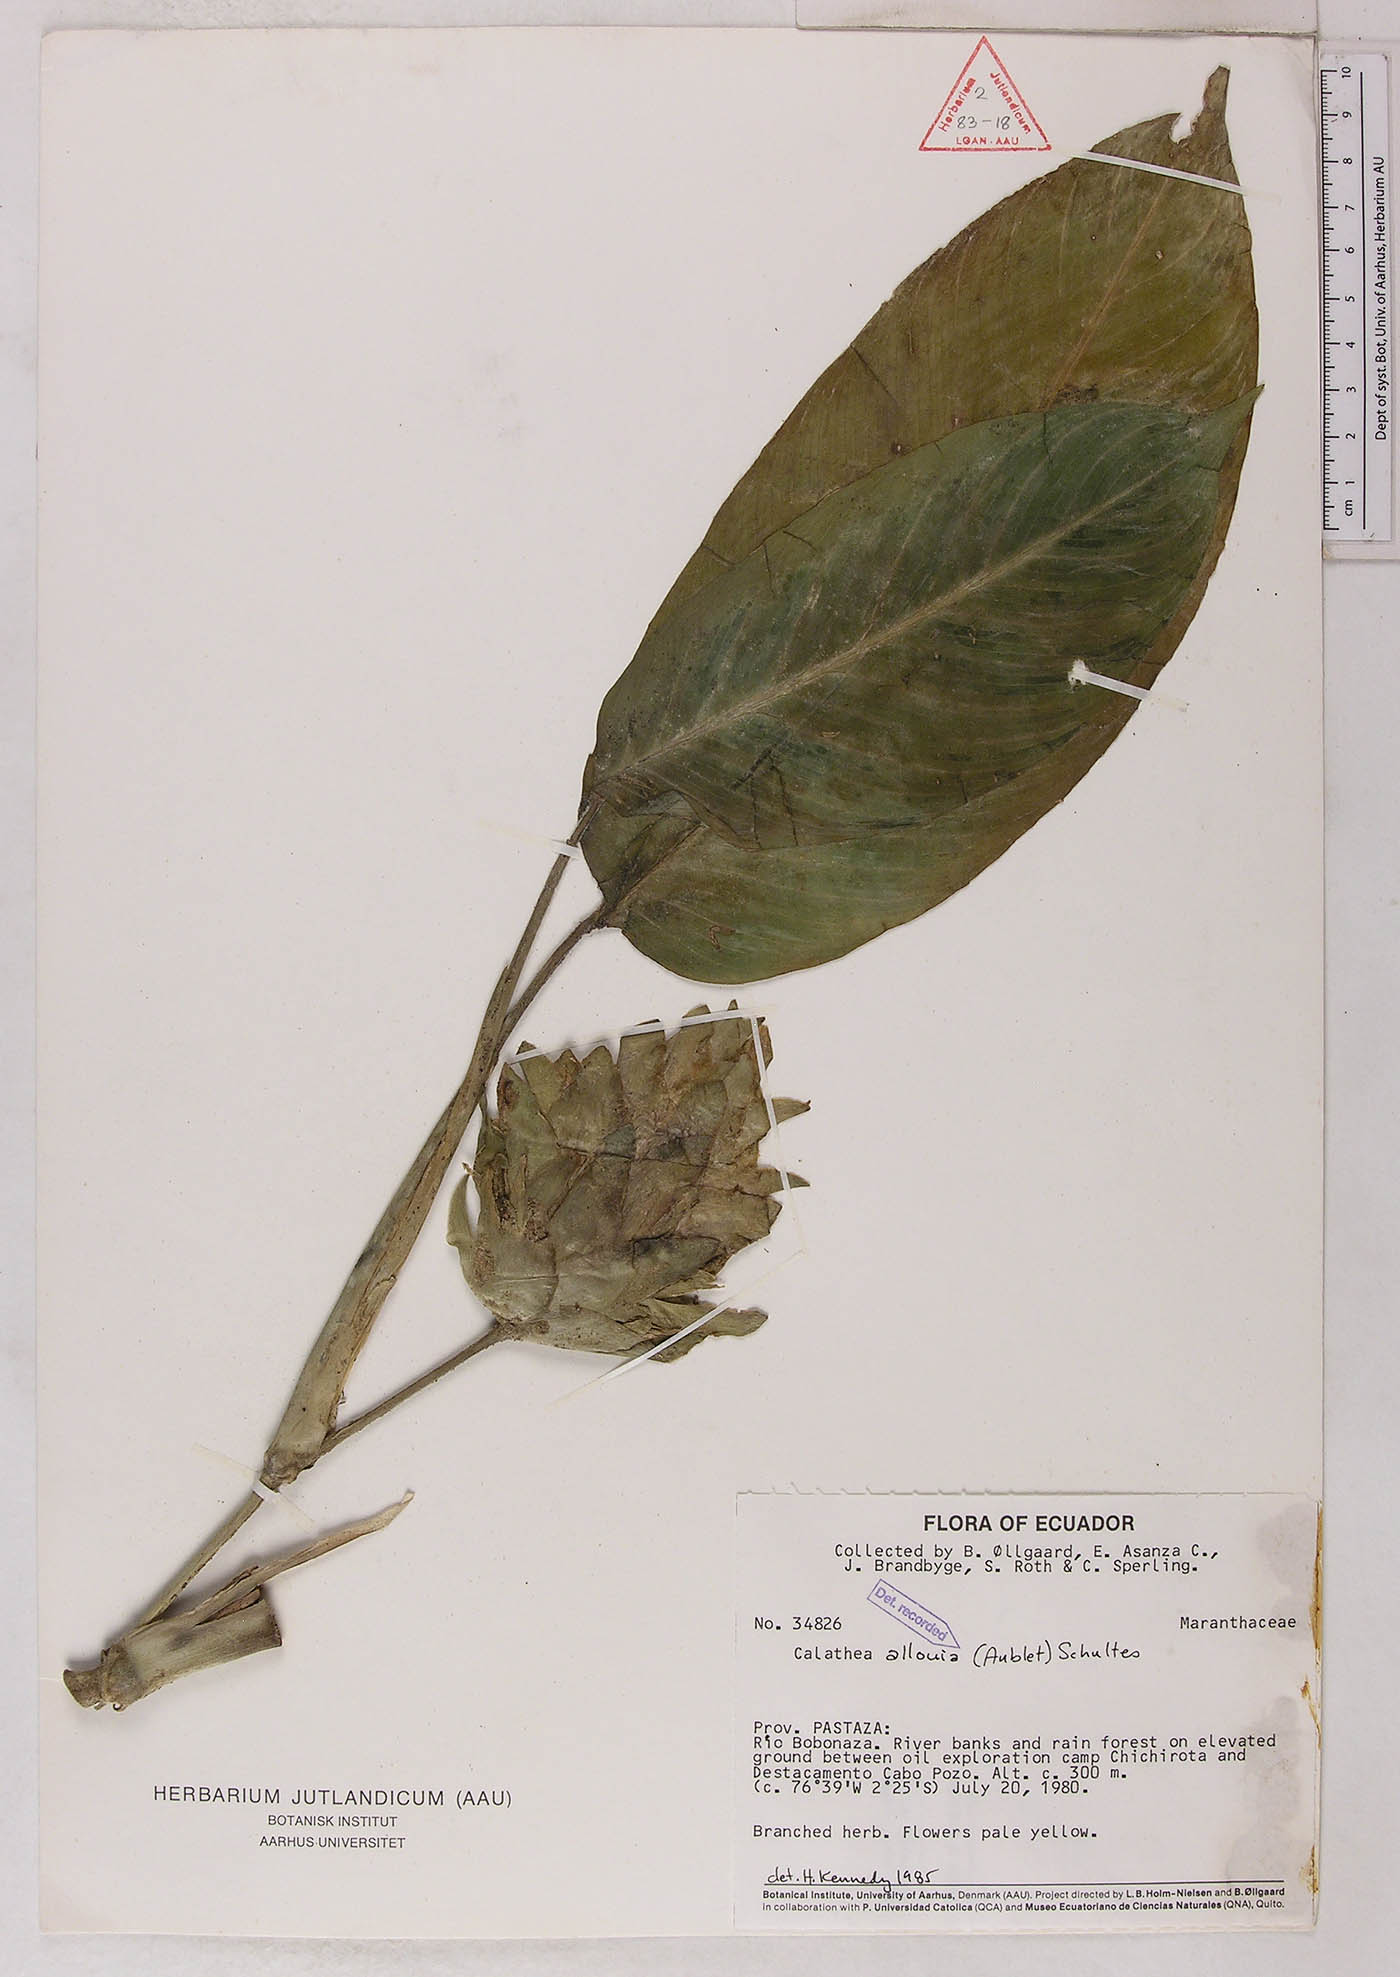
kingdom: Plantae
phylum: Tracheophyta
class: Liliopsida
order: Zingiberales
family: Marantaceae
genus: Goeppertia
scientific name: Goeppertia allouia
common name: Sweet corn-tuber
